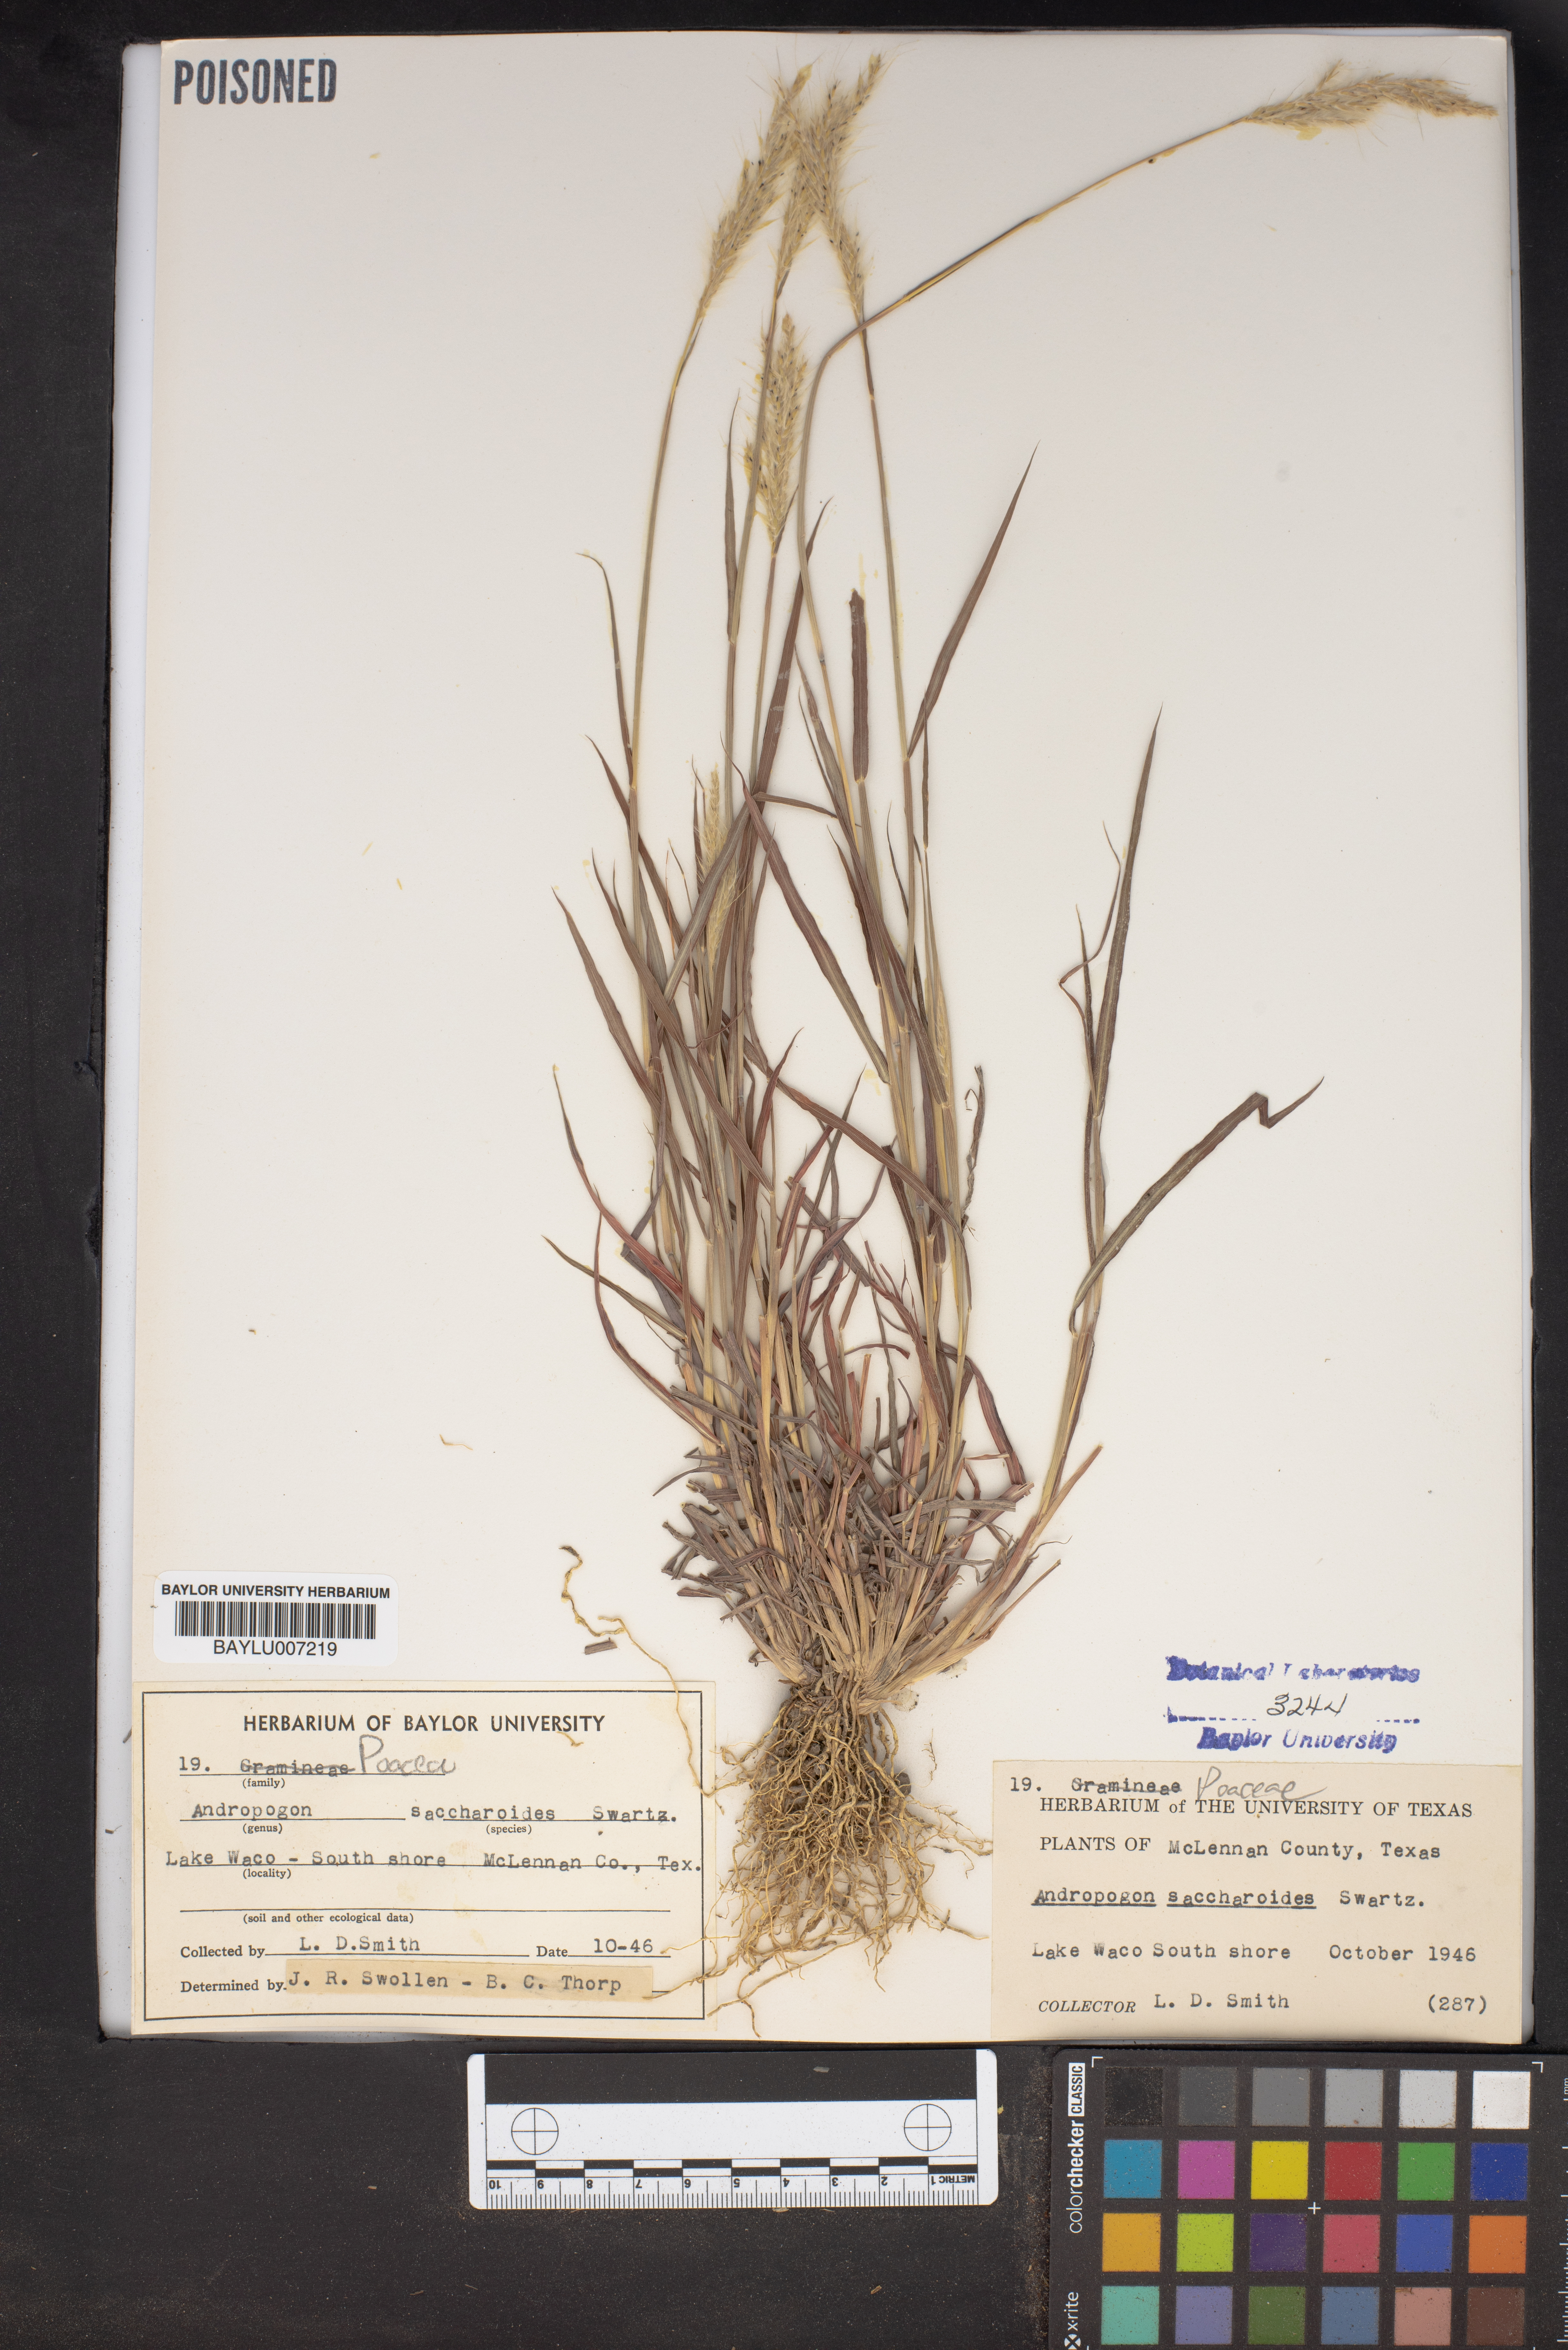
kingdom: Plantae
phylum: Tracheophyta
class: Liliopsida
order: Poales
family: Poaceae
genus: Bothriochloa
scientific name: Bothriochloa saccharoides
